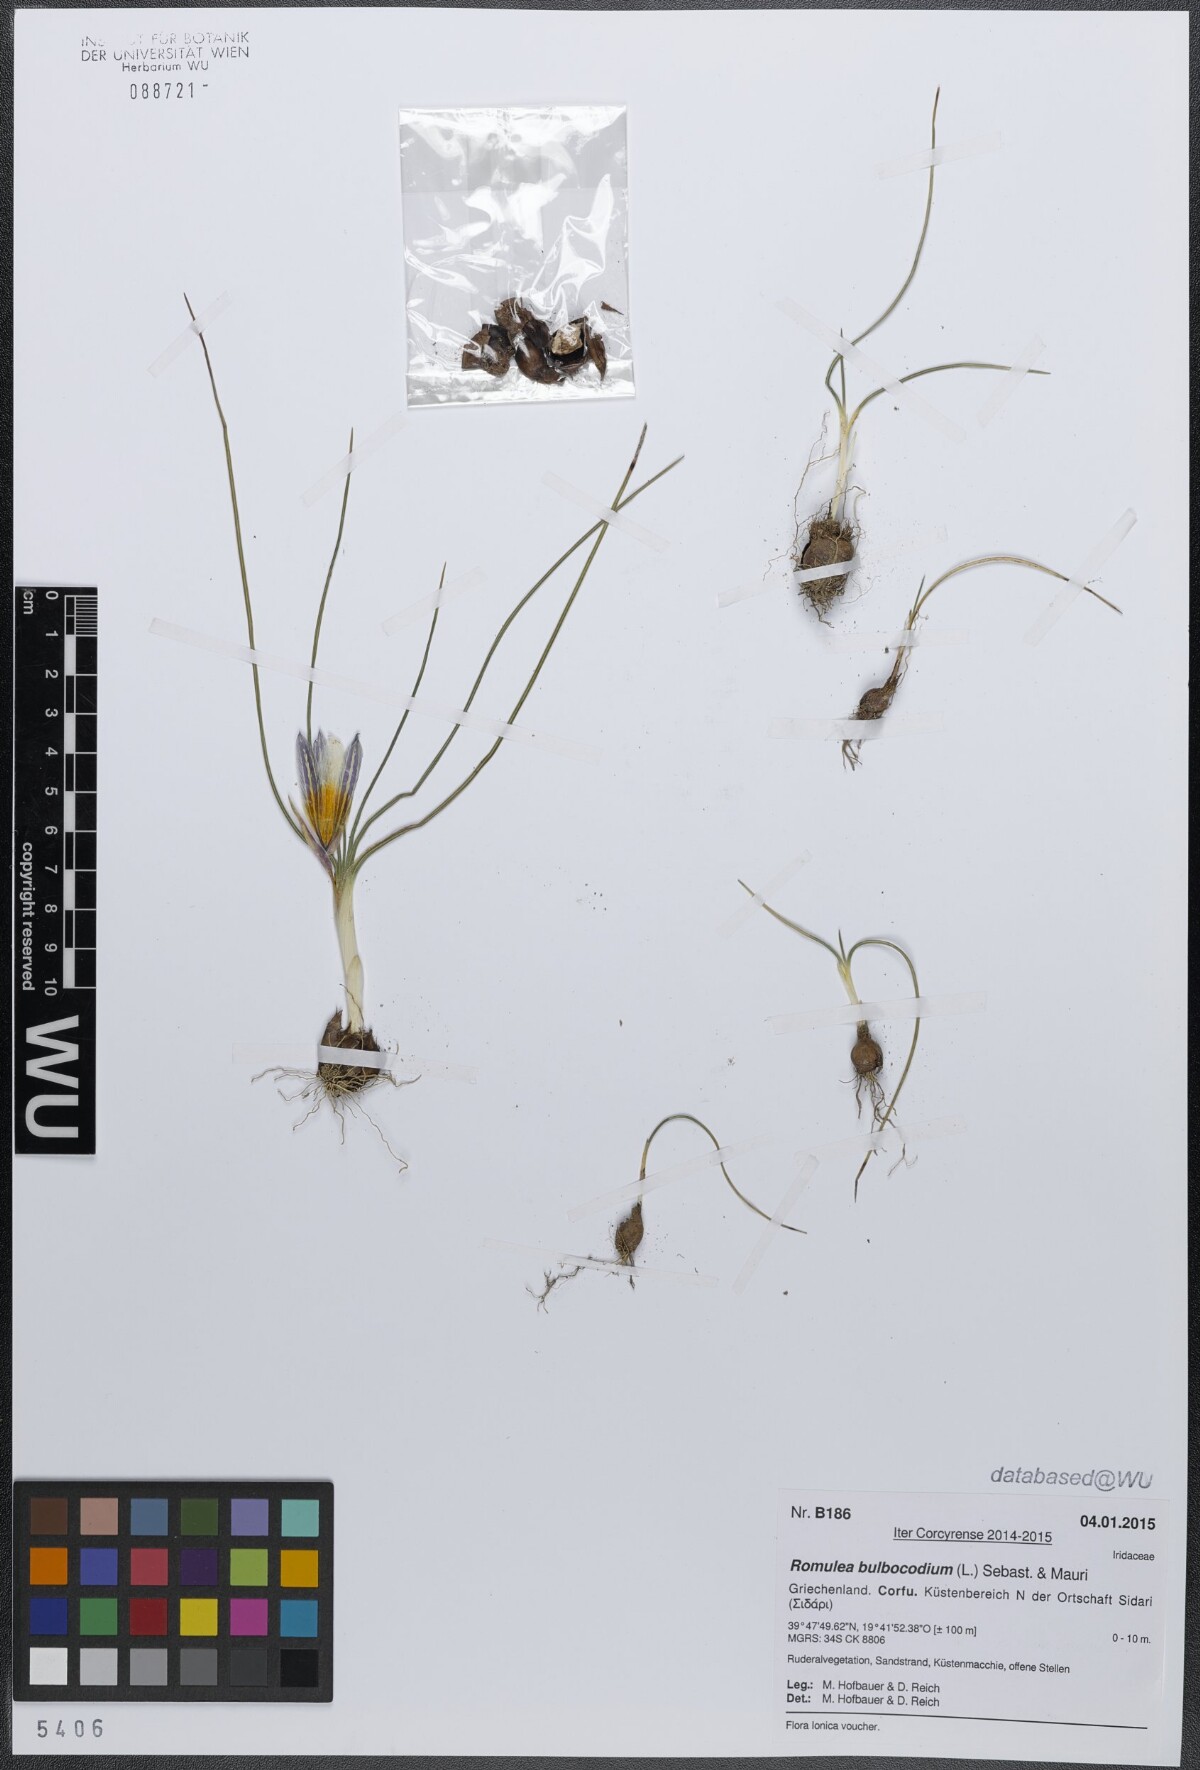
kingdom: Plantae
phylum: Tracheophyta
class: Liliopsida
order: Asparagales
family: Iridaceae
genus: Romulea
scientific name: Romulea bulbocodium
